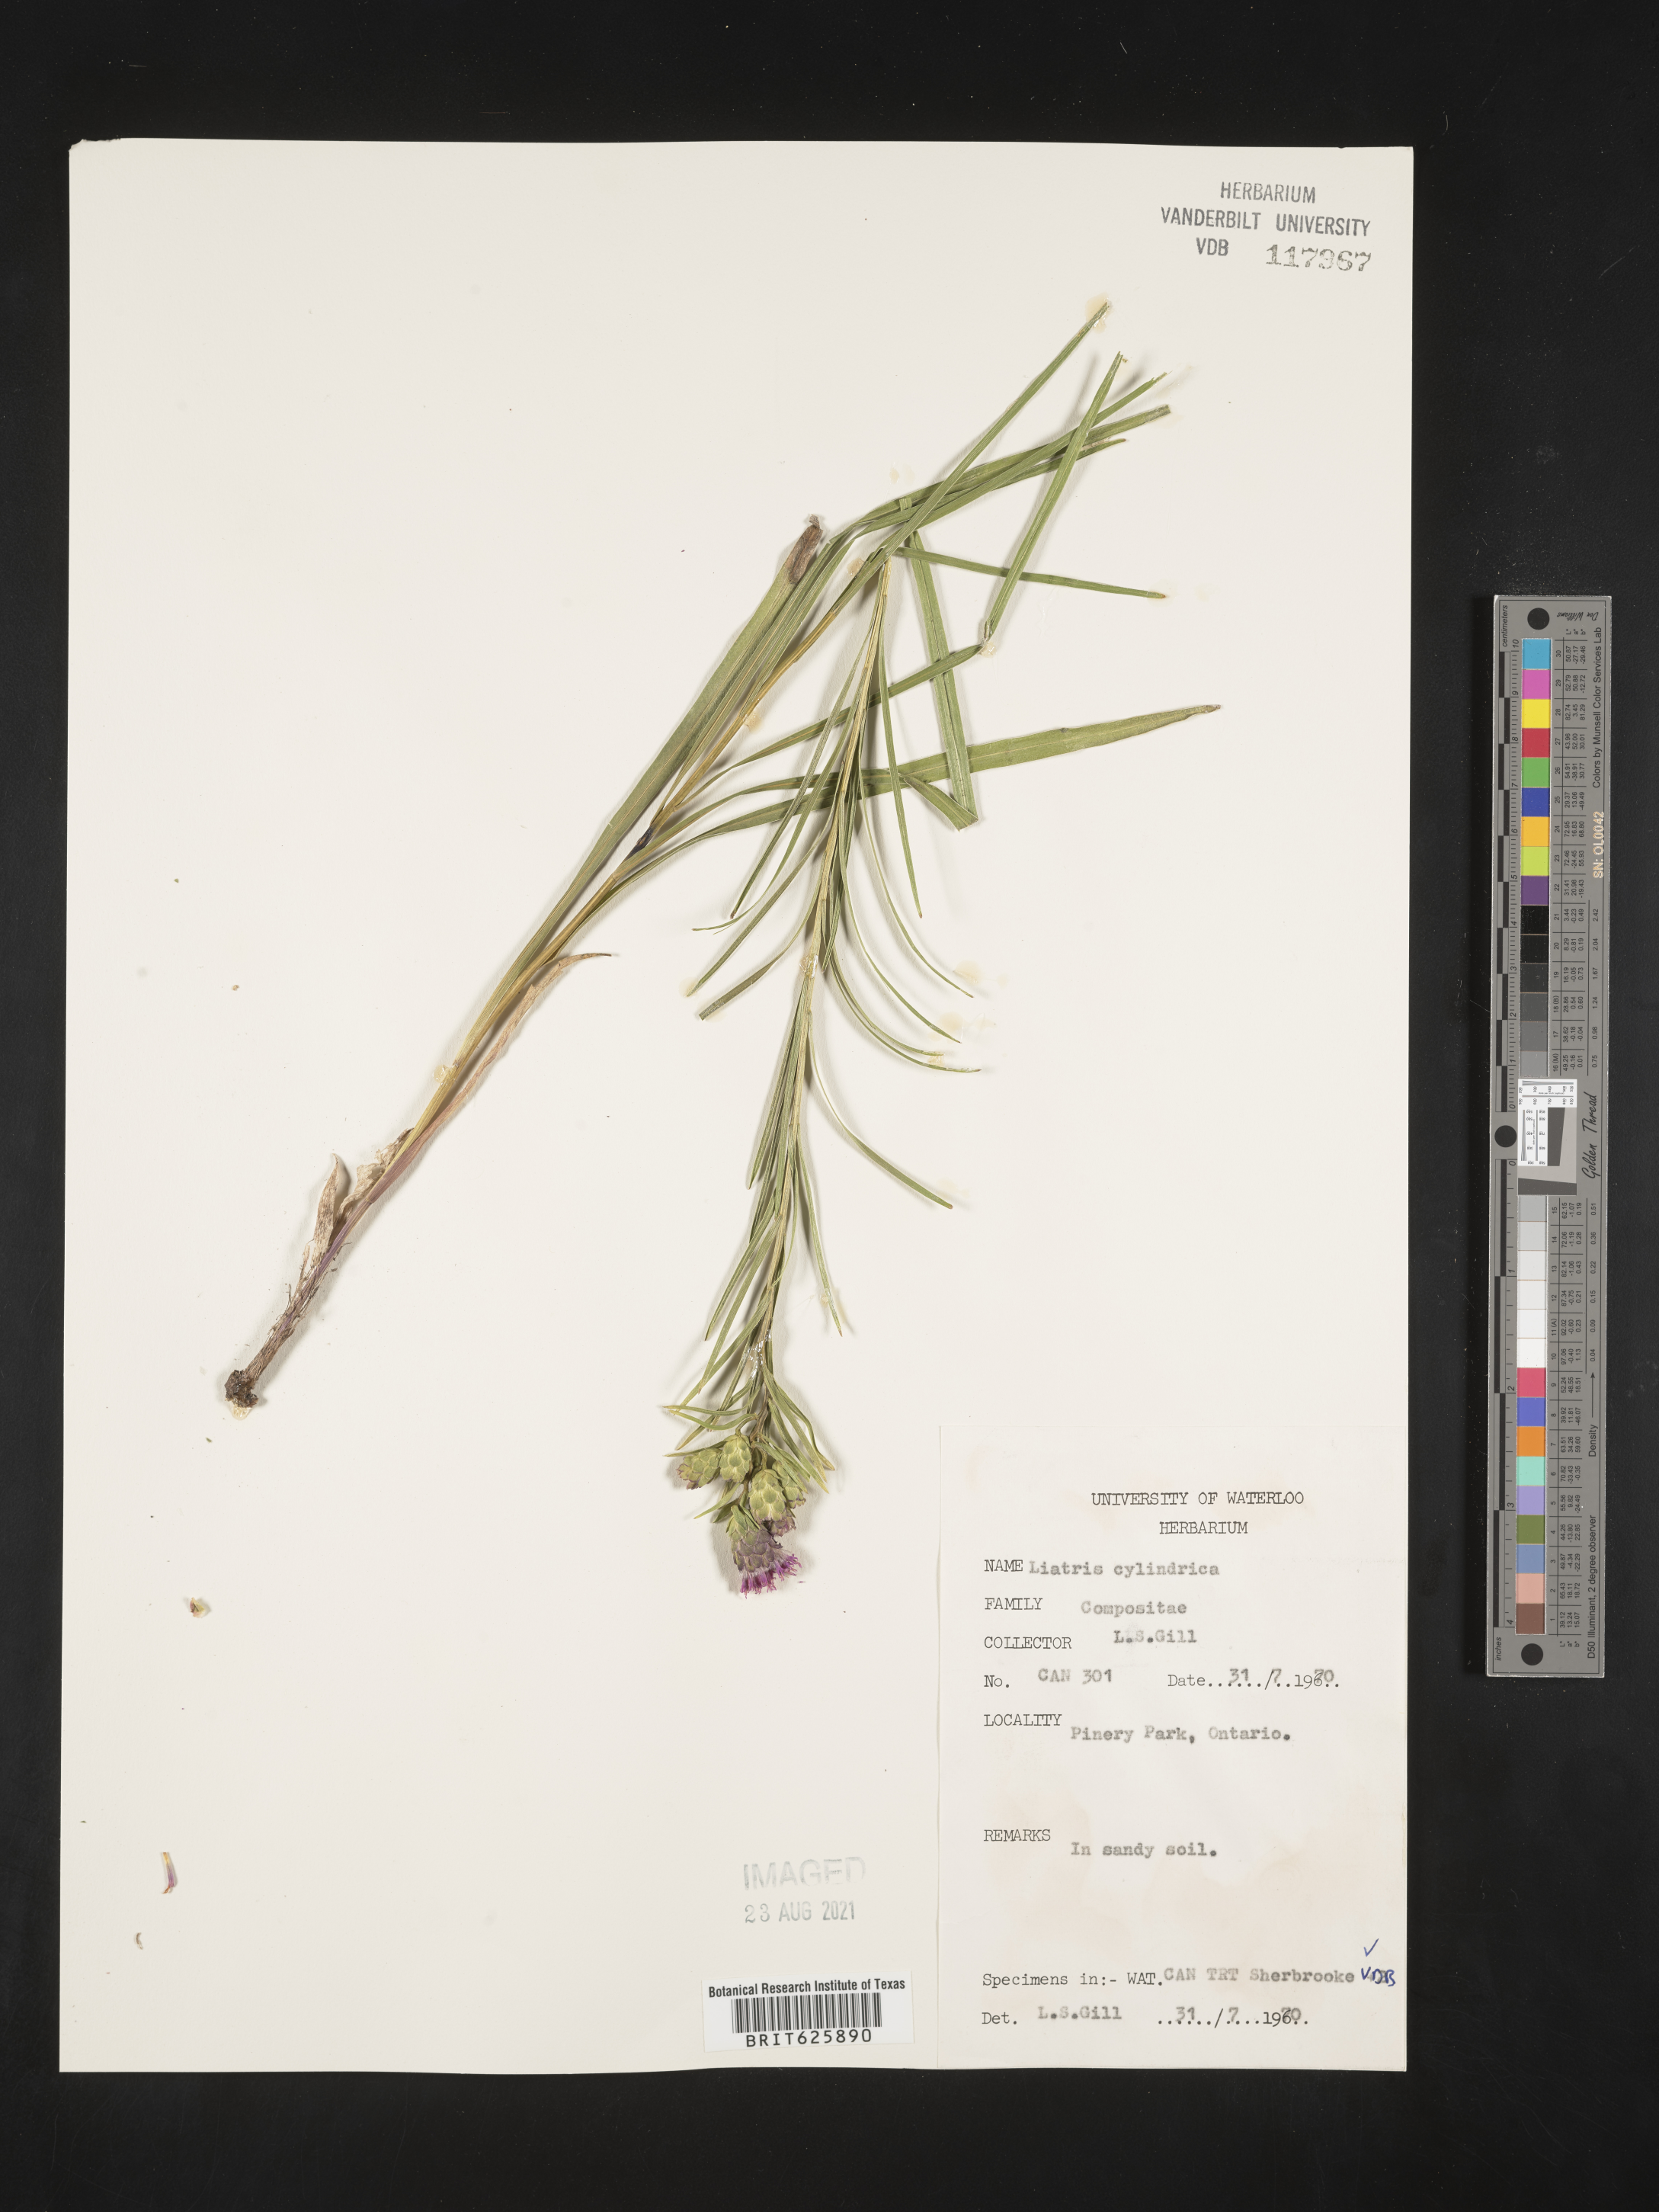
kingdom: Plantae
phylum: Tracheophyta
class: Magnoliopsida
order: Asterales
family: Asteraceae
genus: Liatris
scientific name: Liatris punctata
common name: Dotted gayfeather
